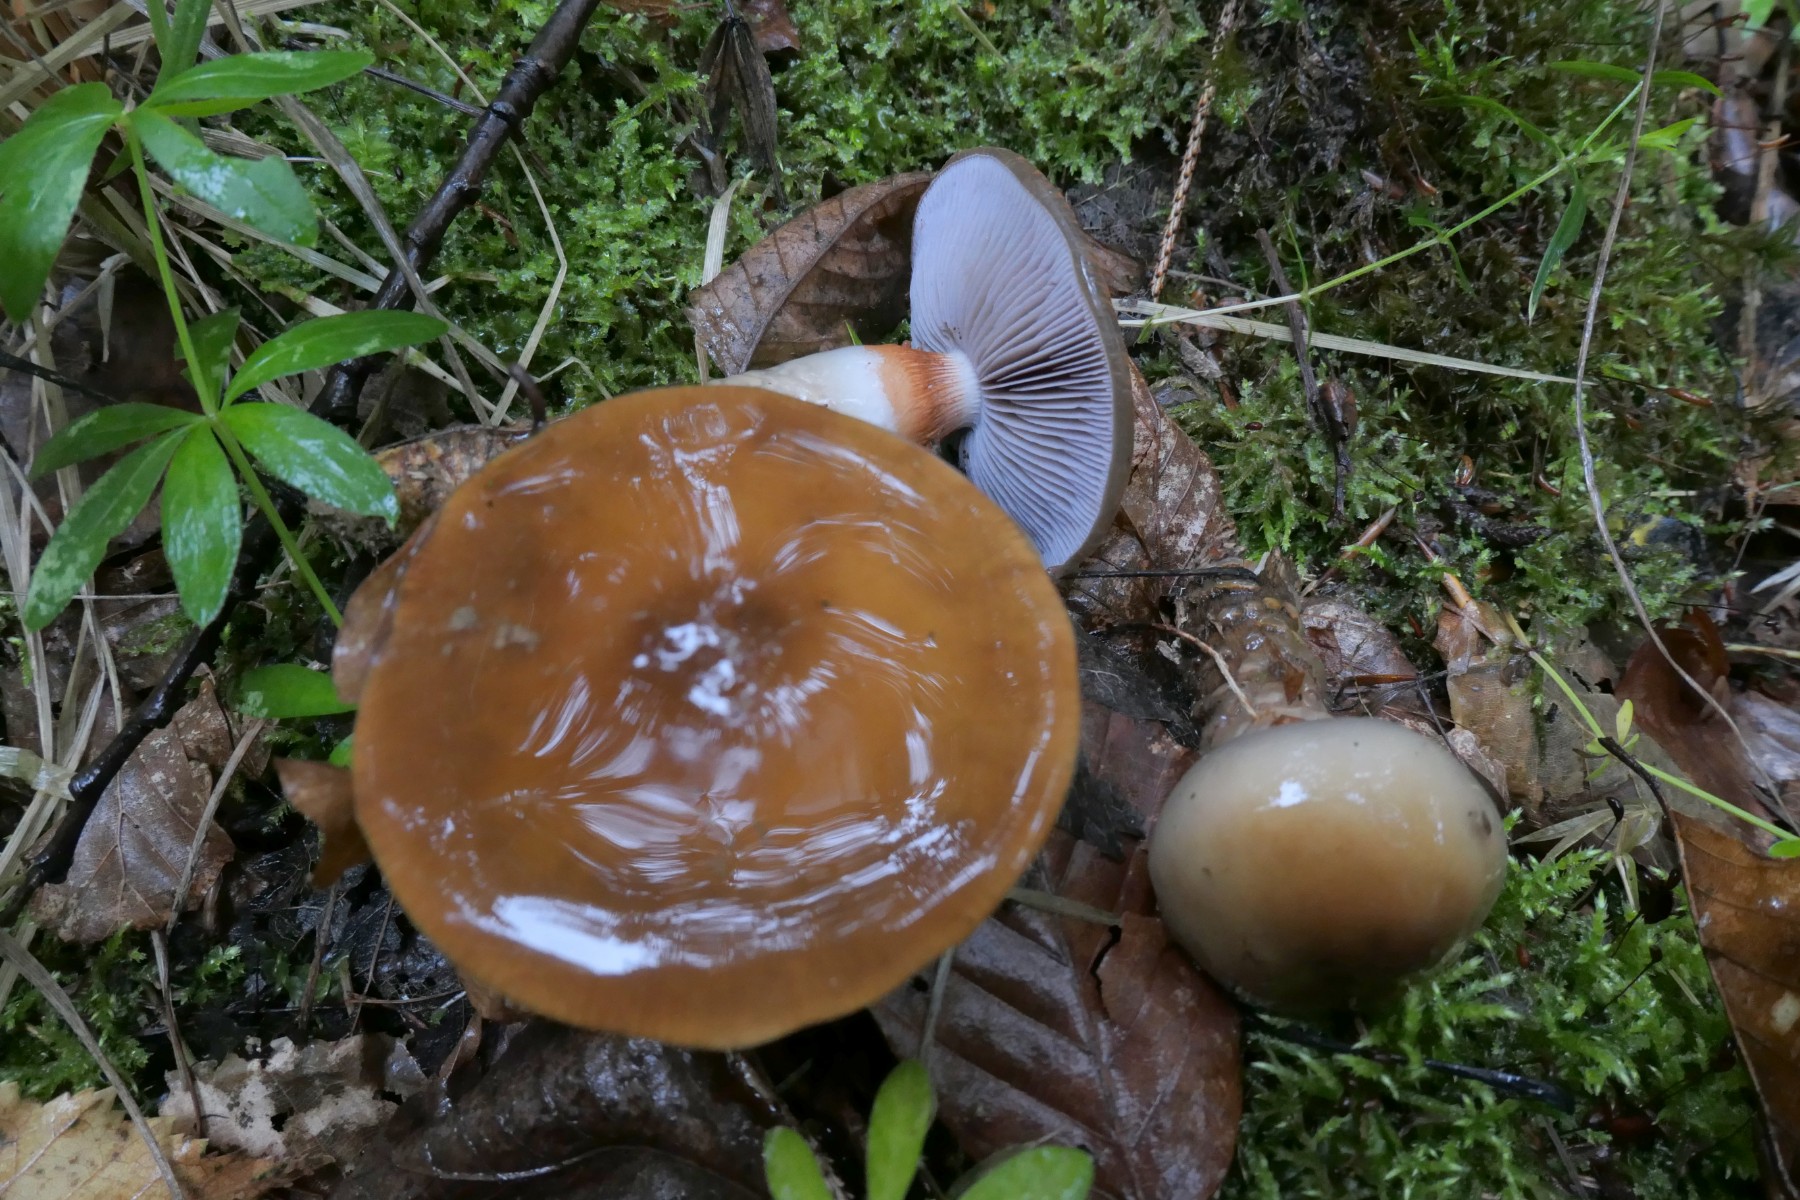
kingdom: Fungi
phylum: Basidiomycota
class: Agaricomycetes
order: Agaricales
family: Cortinariaceae
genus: Cortinarius
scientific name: Cortinarius trivialis
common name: brunslimet slørhat
